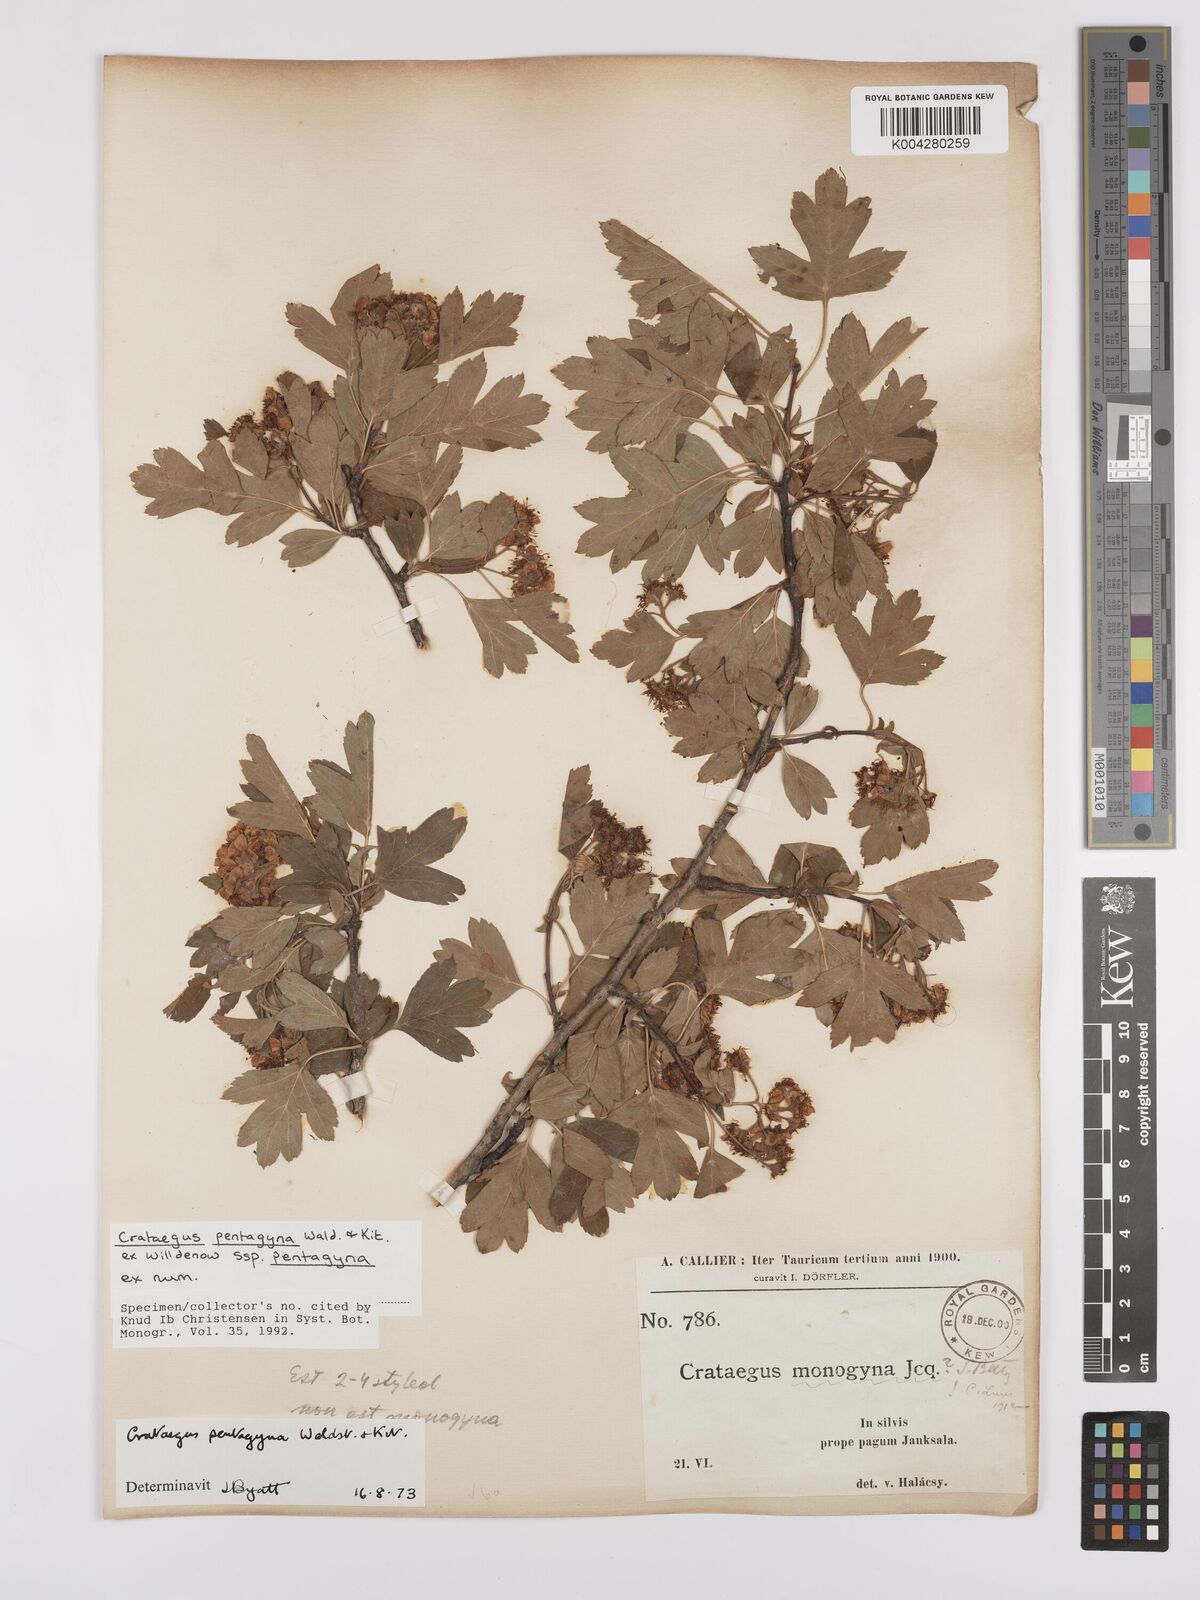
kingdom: Plantae
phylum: Tracheophyta
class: Magnoliopsida
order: Rosales
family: Rosaceae
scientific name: Rosaceae
